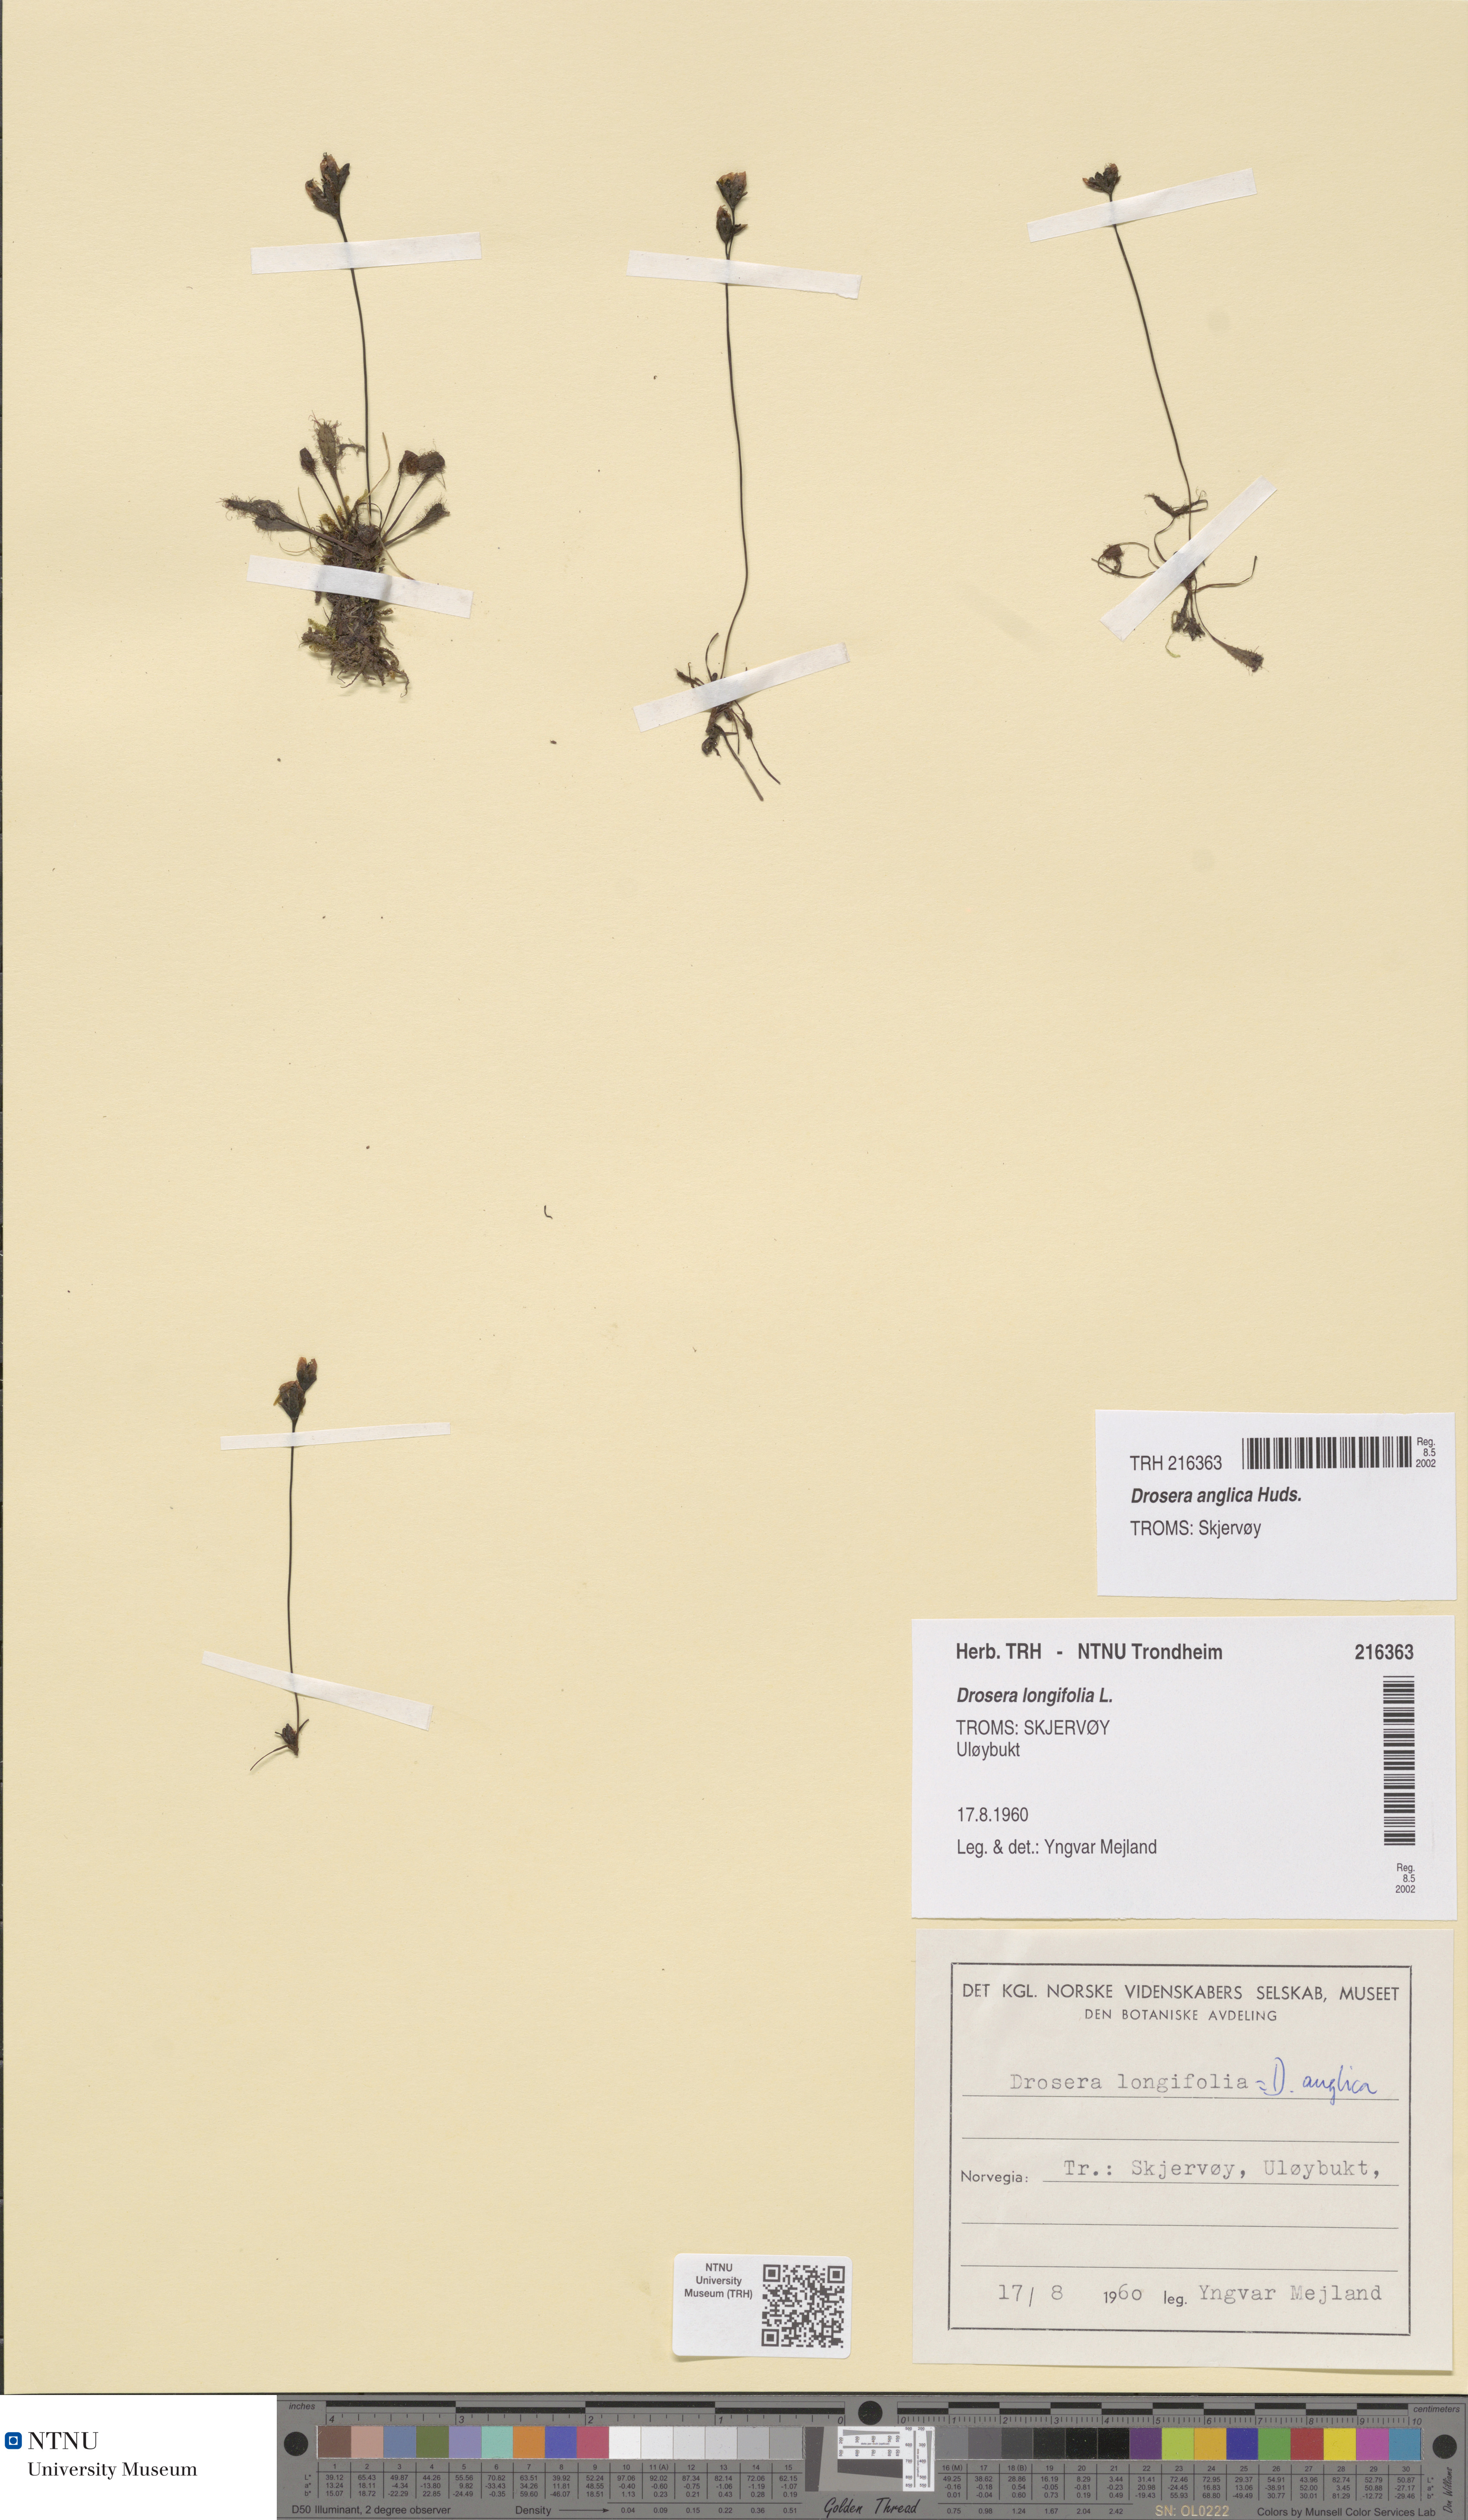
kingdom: Plantae
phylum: Tracheophyta
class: Magnoliopsida
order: Caryophyllales
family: Droseraceae
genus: Drosera
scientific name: Drosera anglica
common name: Great sundew
